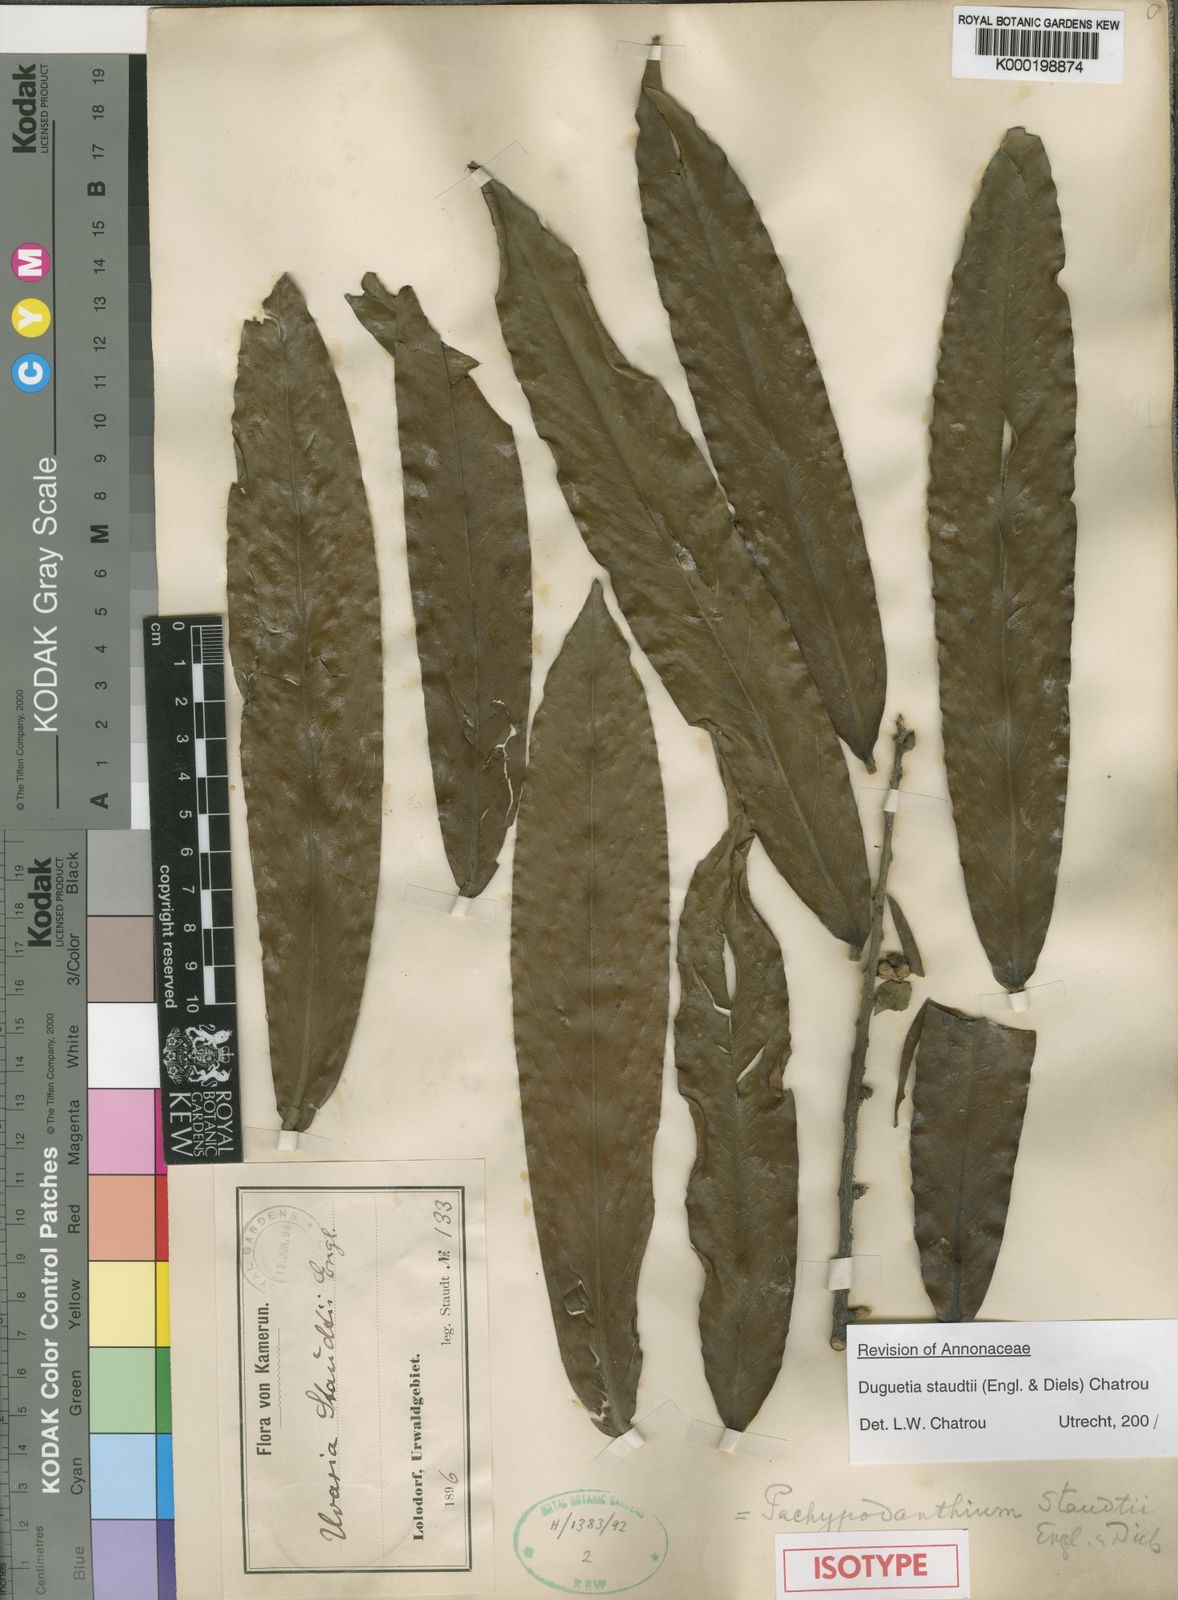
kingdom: Plantae
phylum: Tracheophyta
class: Magnoliopsida
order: Magnoliales
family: Annonaceae
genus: Duguetia
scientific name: Duguetia staudtii
